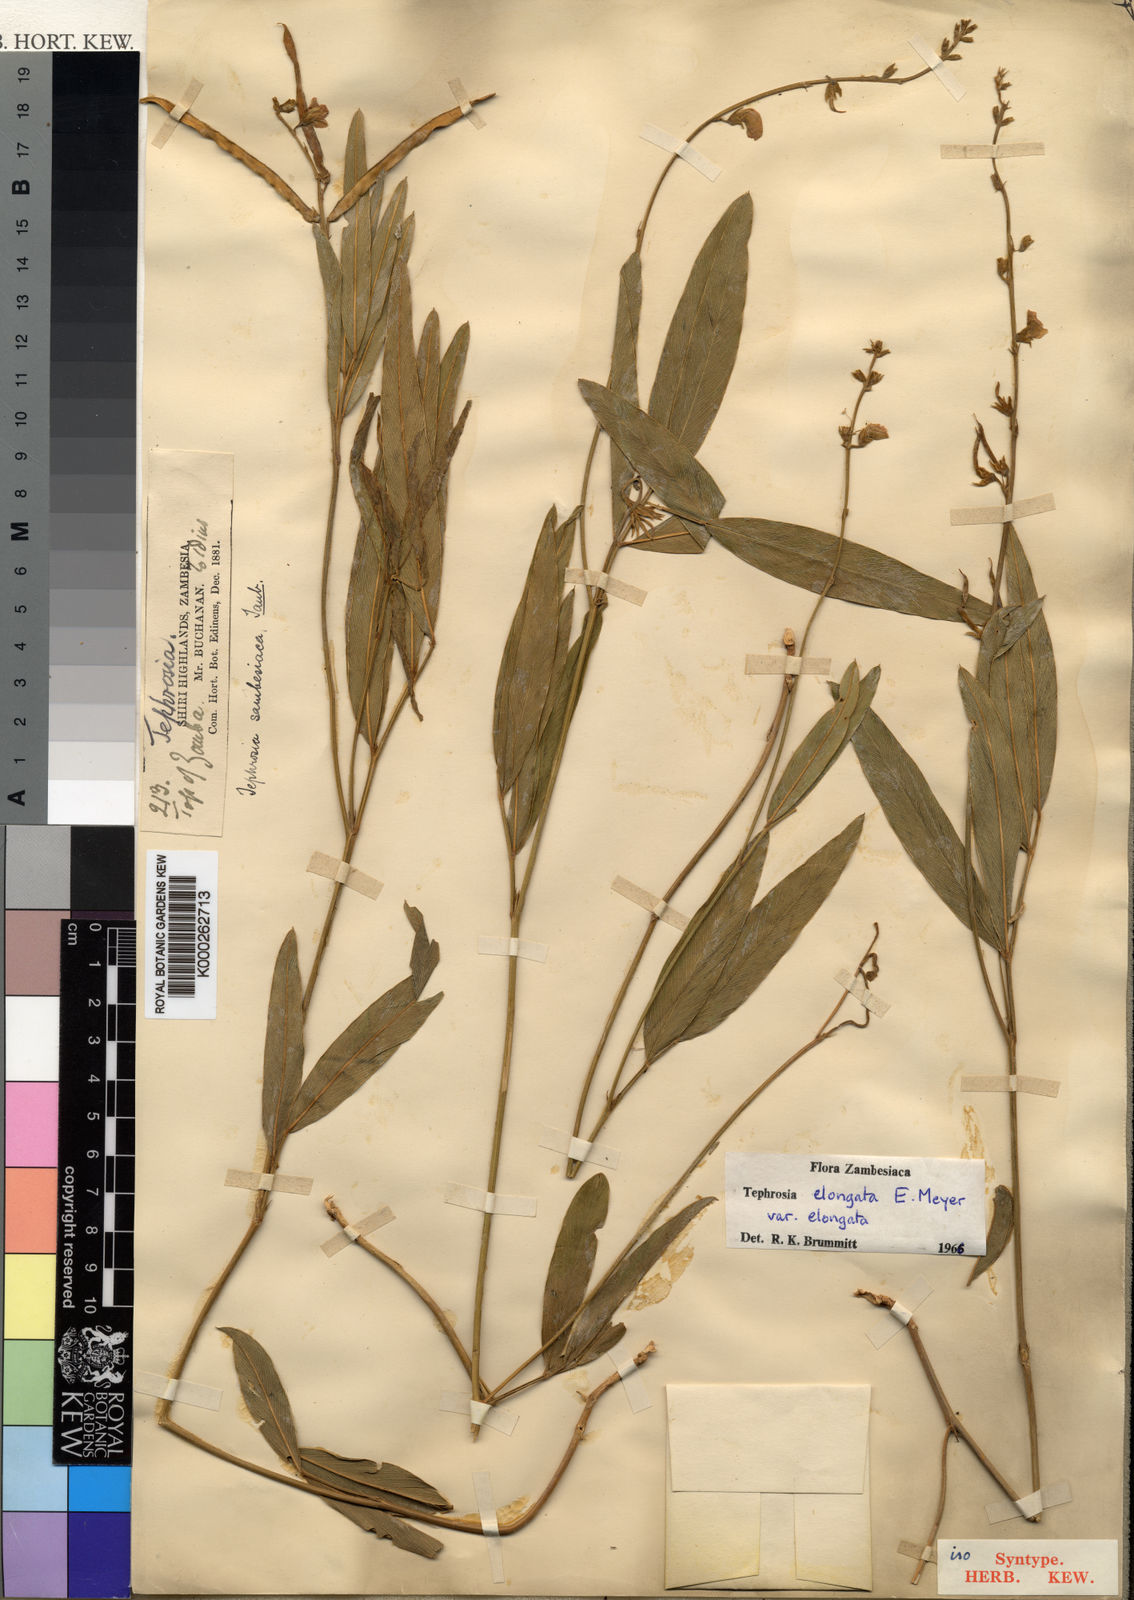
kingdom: Plantae
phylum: Tracheophyta
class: Magnoliopsida
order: Fabales
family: Fabaceae
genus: Tephrosia
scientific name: Tephrosia elongata
